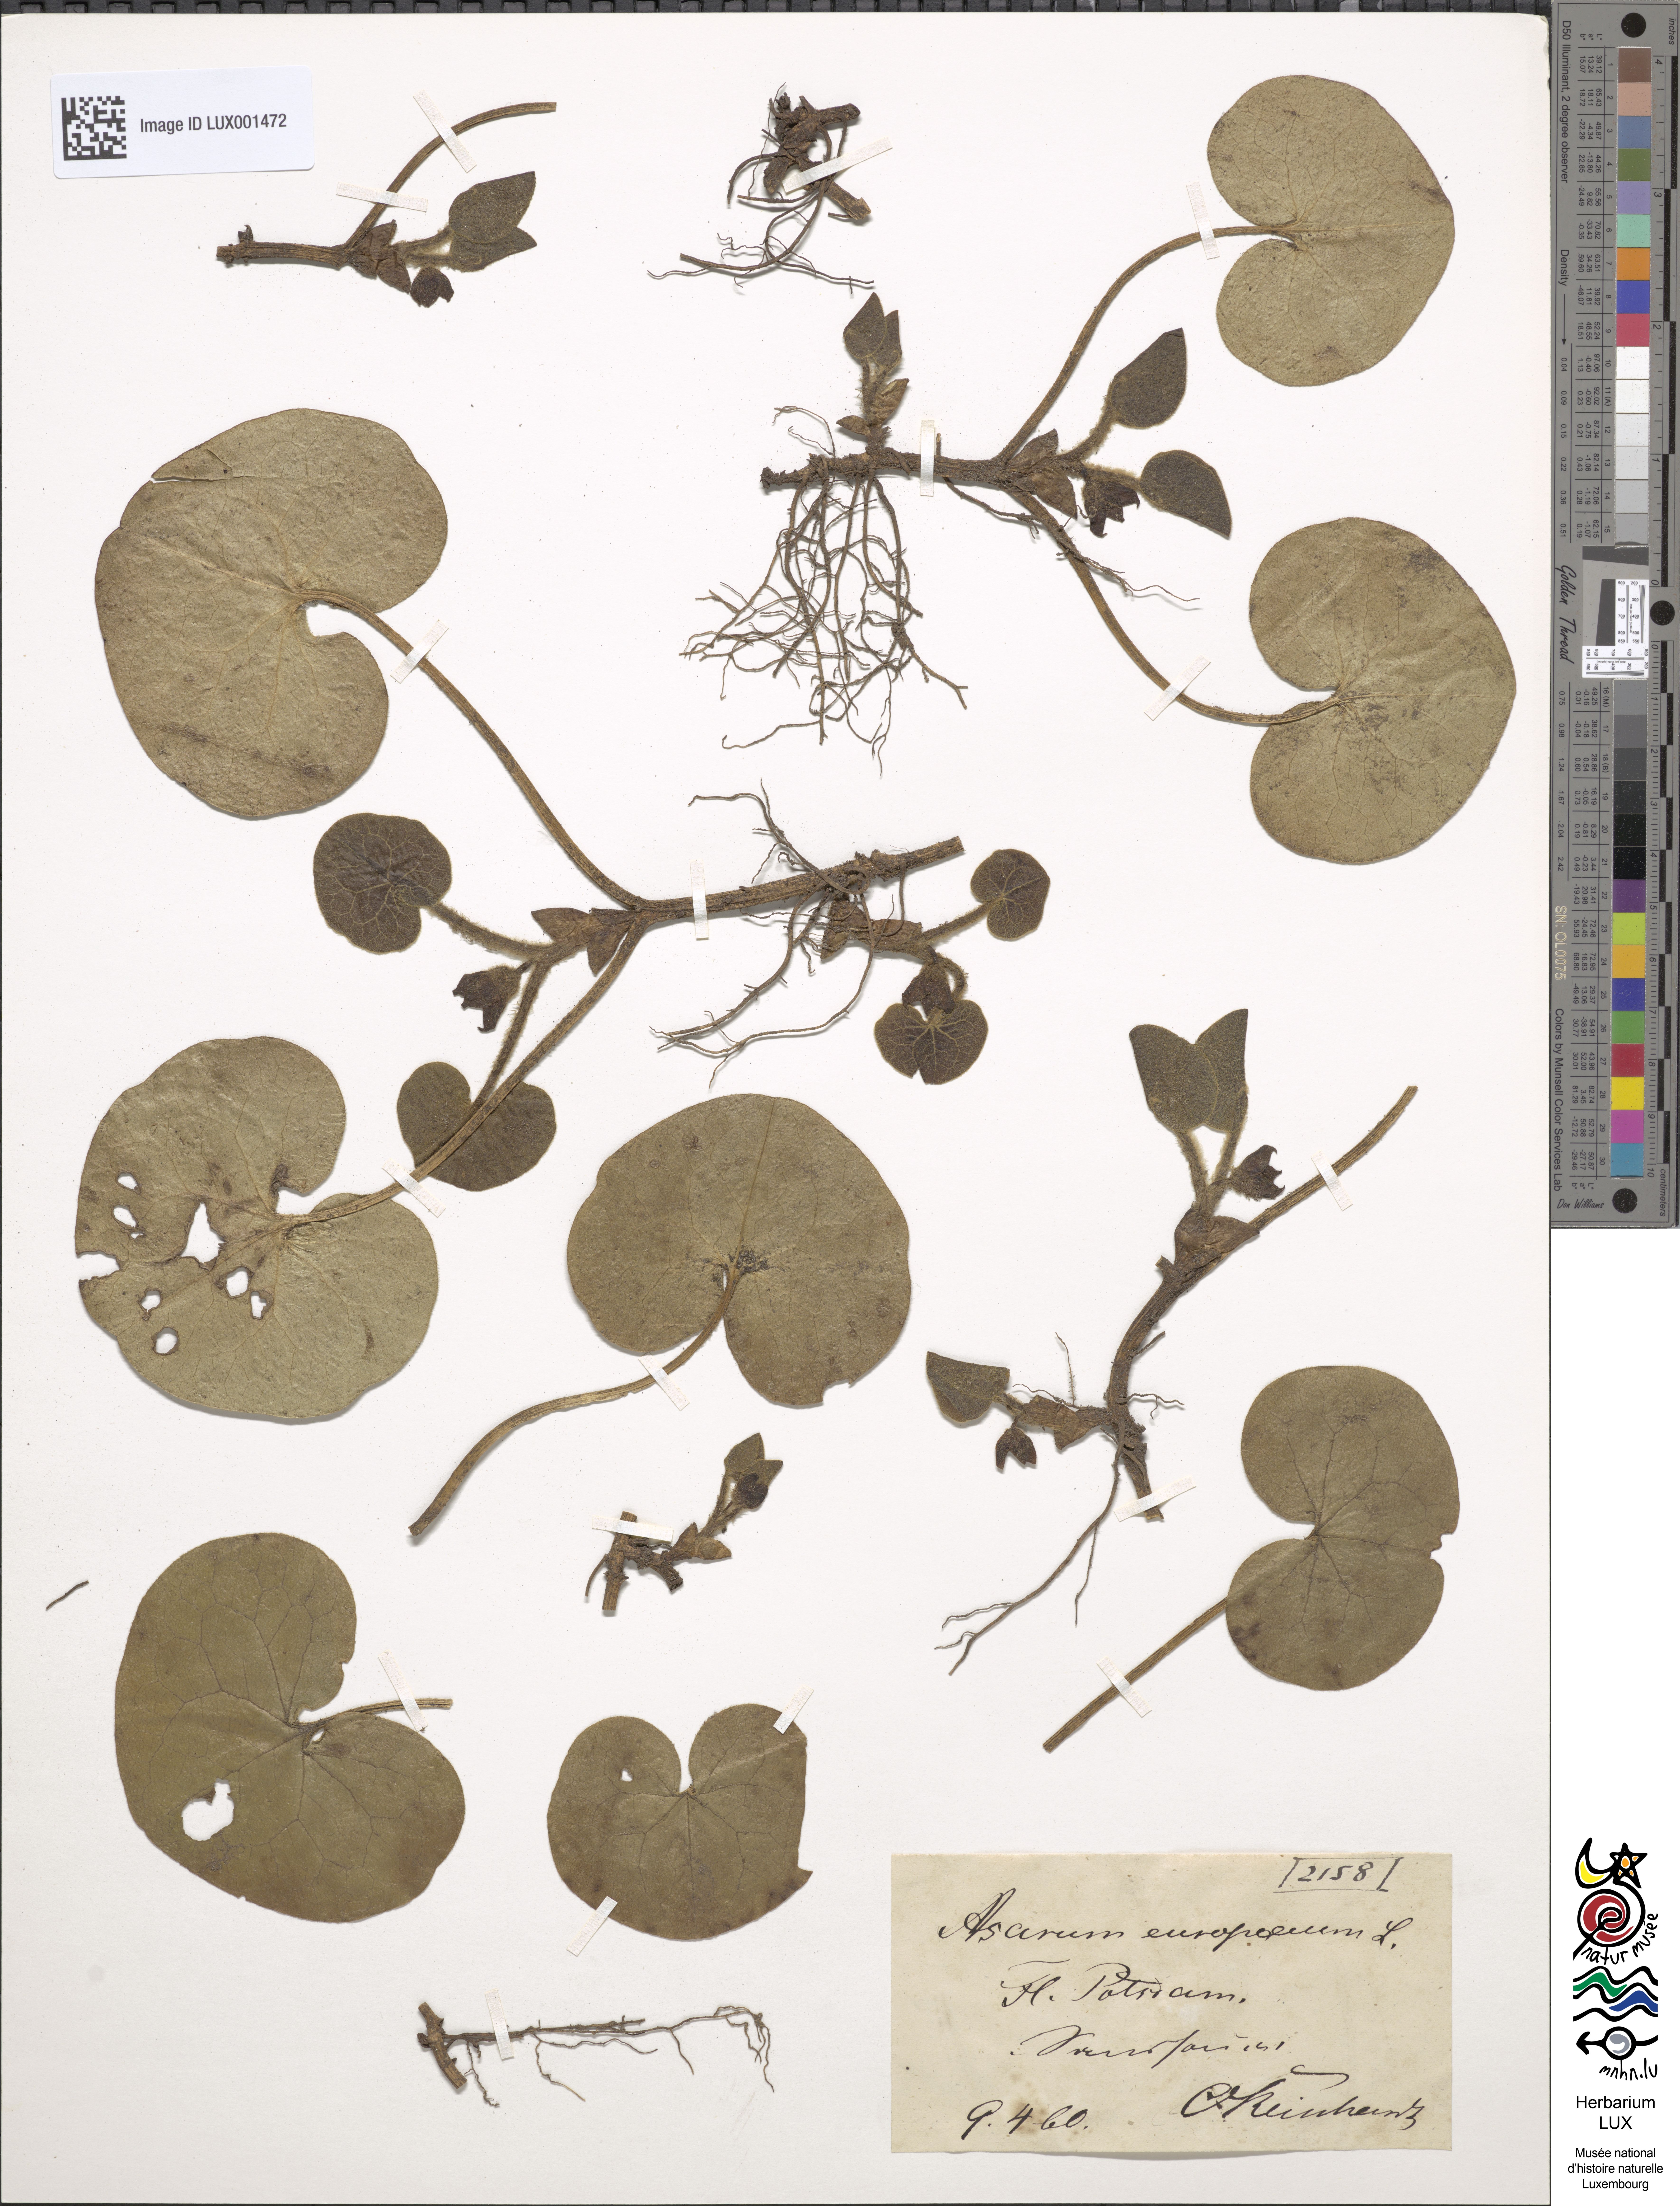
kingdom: Plantae
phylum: Tracheophyta
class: Magnoliopsida
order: Piperales
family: Aristolochiaceae
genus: Asarum
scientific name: Asarum europaeum
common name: Asarabacca
